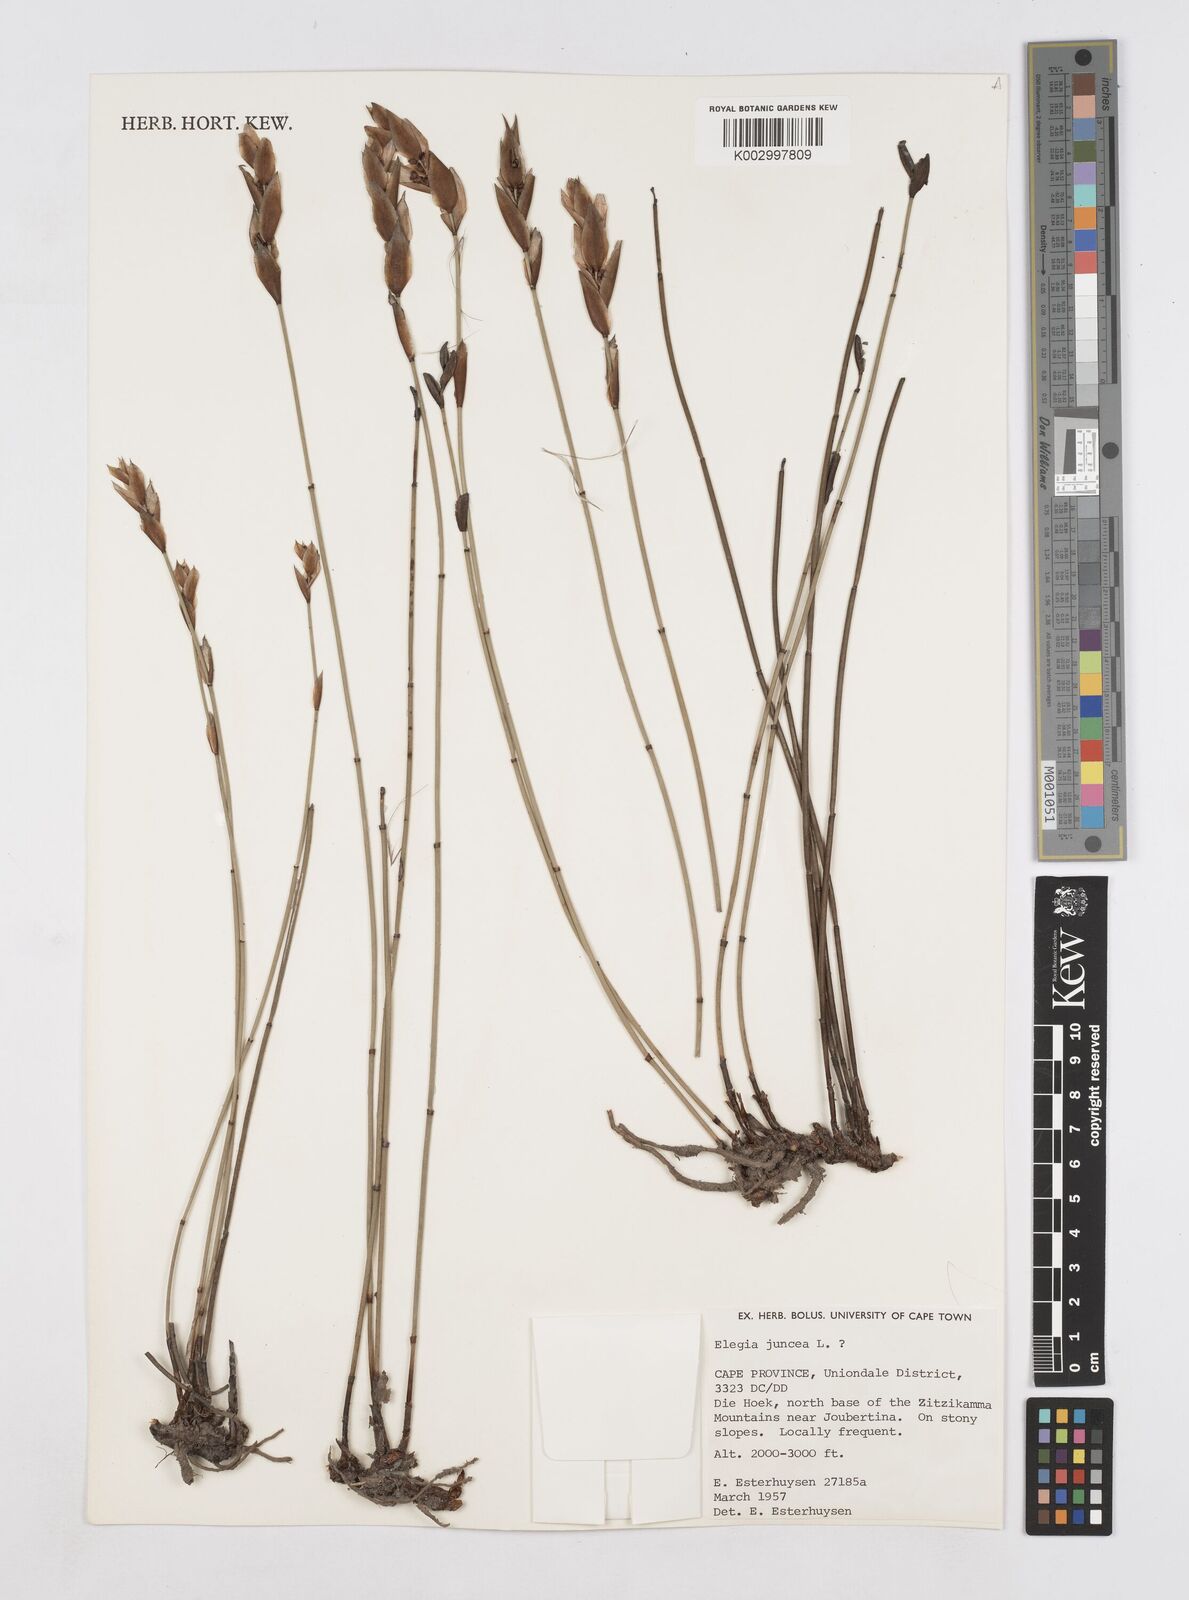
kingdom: Plantae
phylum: Tracheophyta
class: Liliopsida
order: Poales
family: Restionaceae
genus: Elegia
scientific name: Elegia juncea
